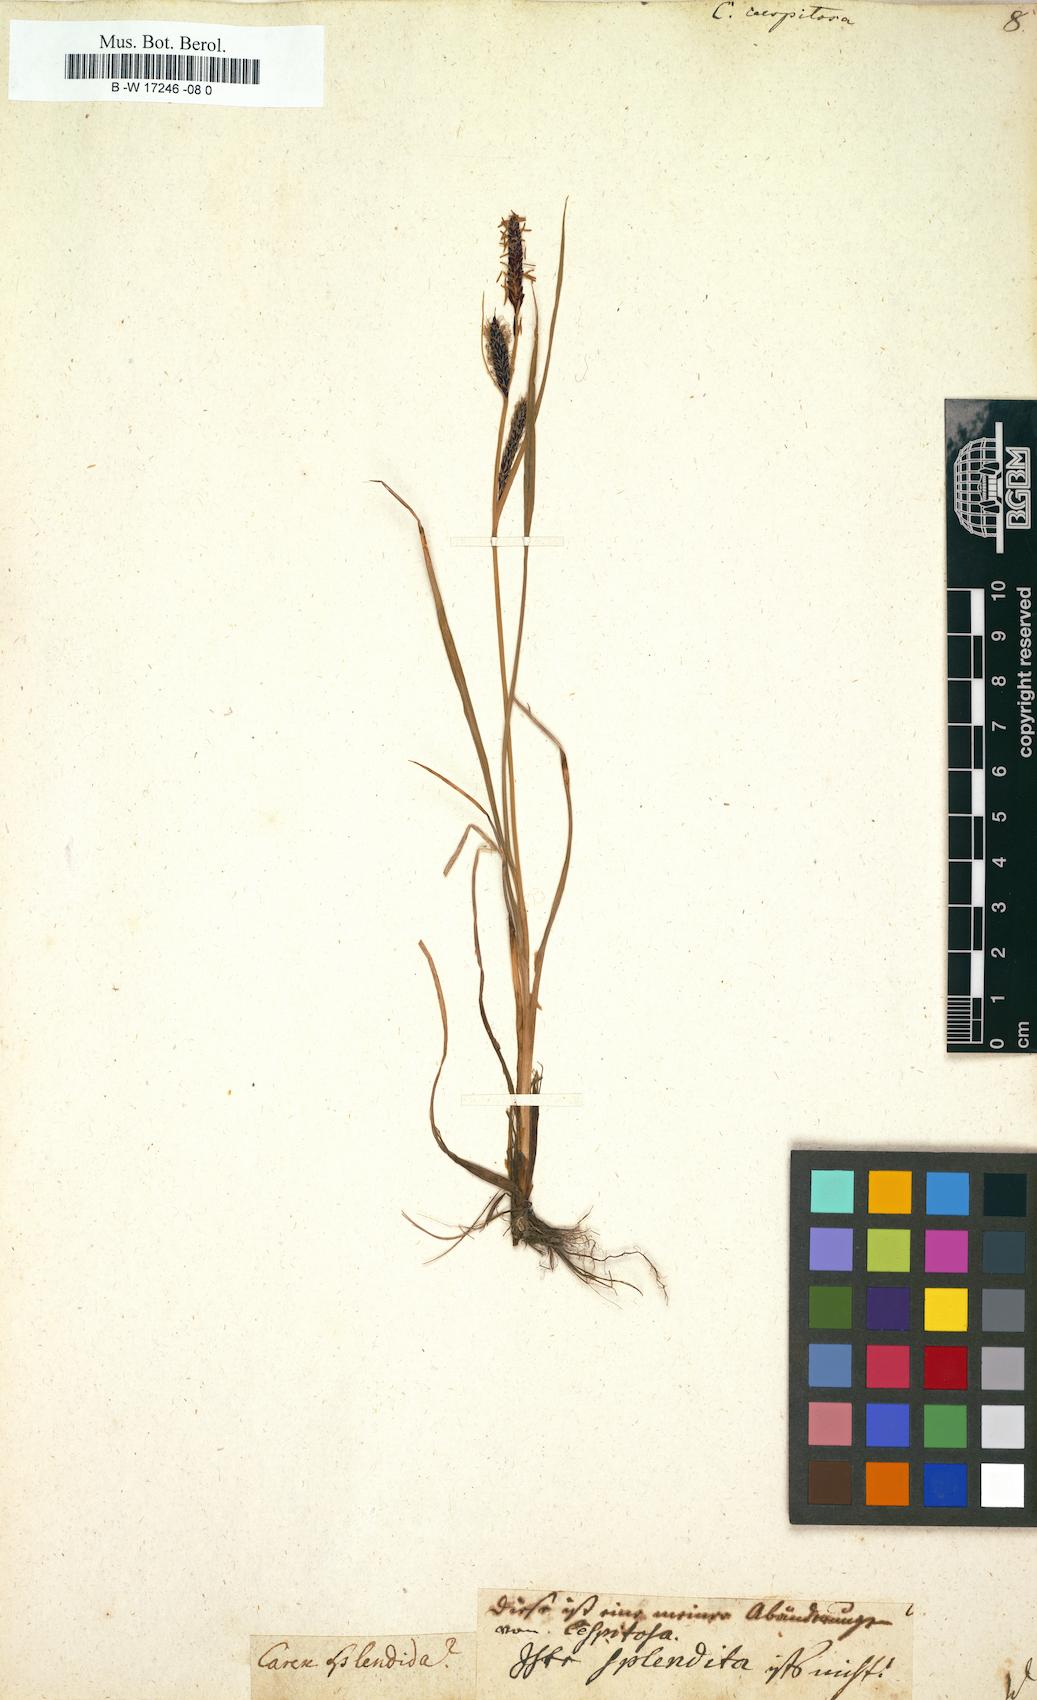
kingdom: Plantae
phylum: Tracheophyta
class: Liliopsida
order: Poales
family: Cyperaceae
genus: Carex
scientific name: Carex cespitosa
